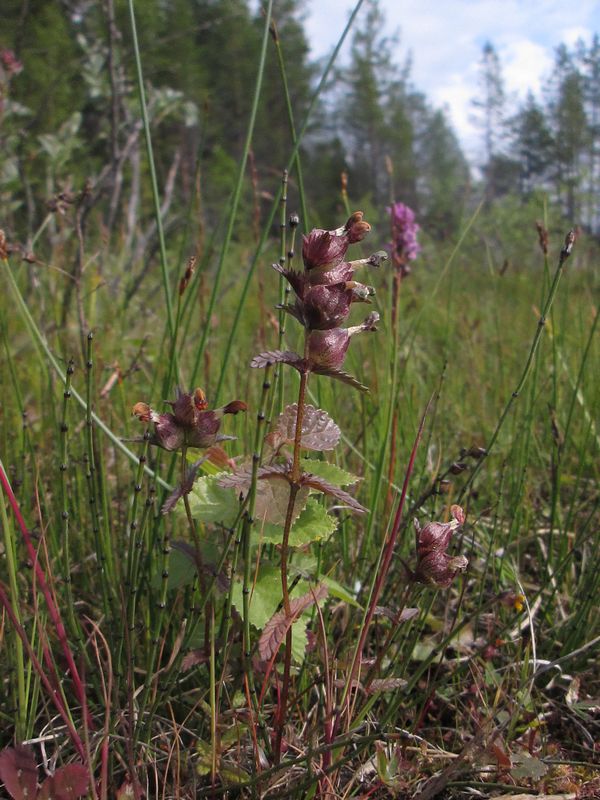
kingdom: Plantae
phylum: Tracheophyta
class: Magnoliopsida
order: Lamiales
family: Orobanchaceae
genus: Rhinanthus
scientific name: Rhinanthus minor
